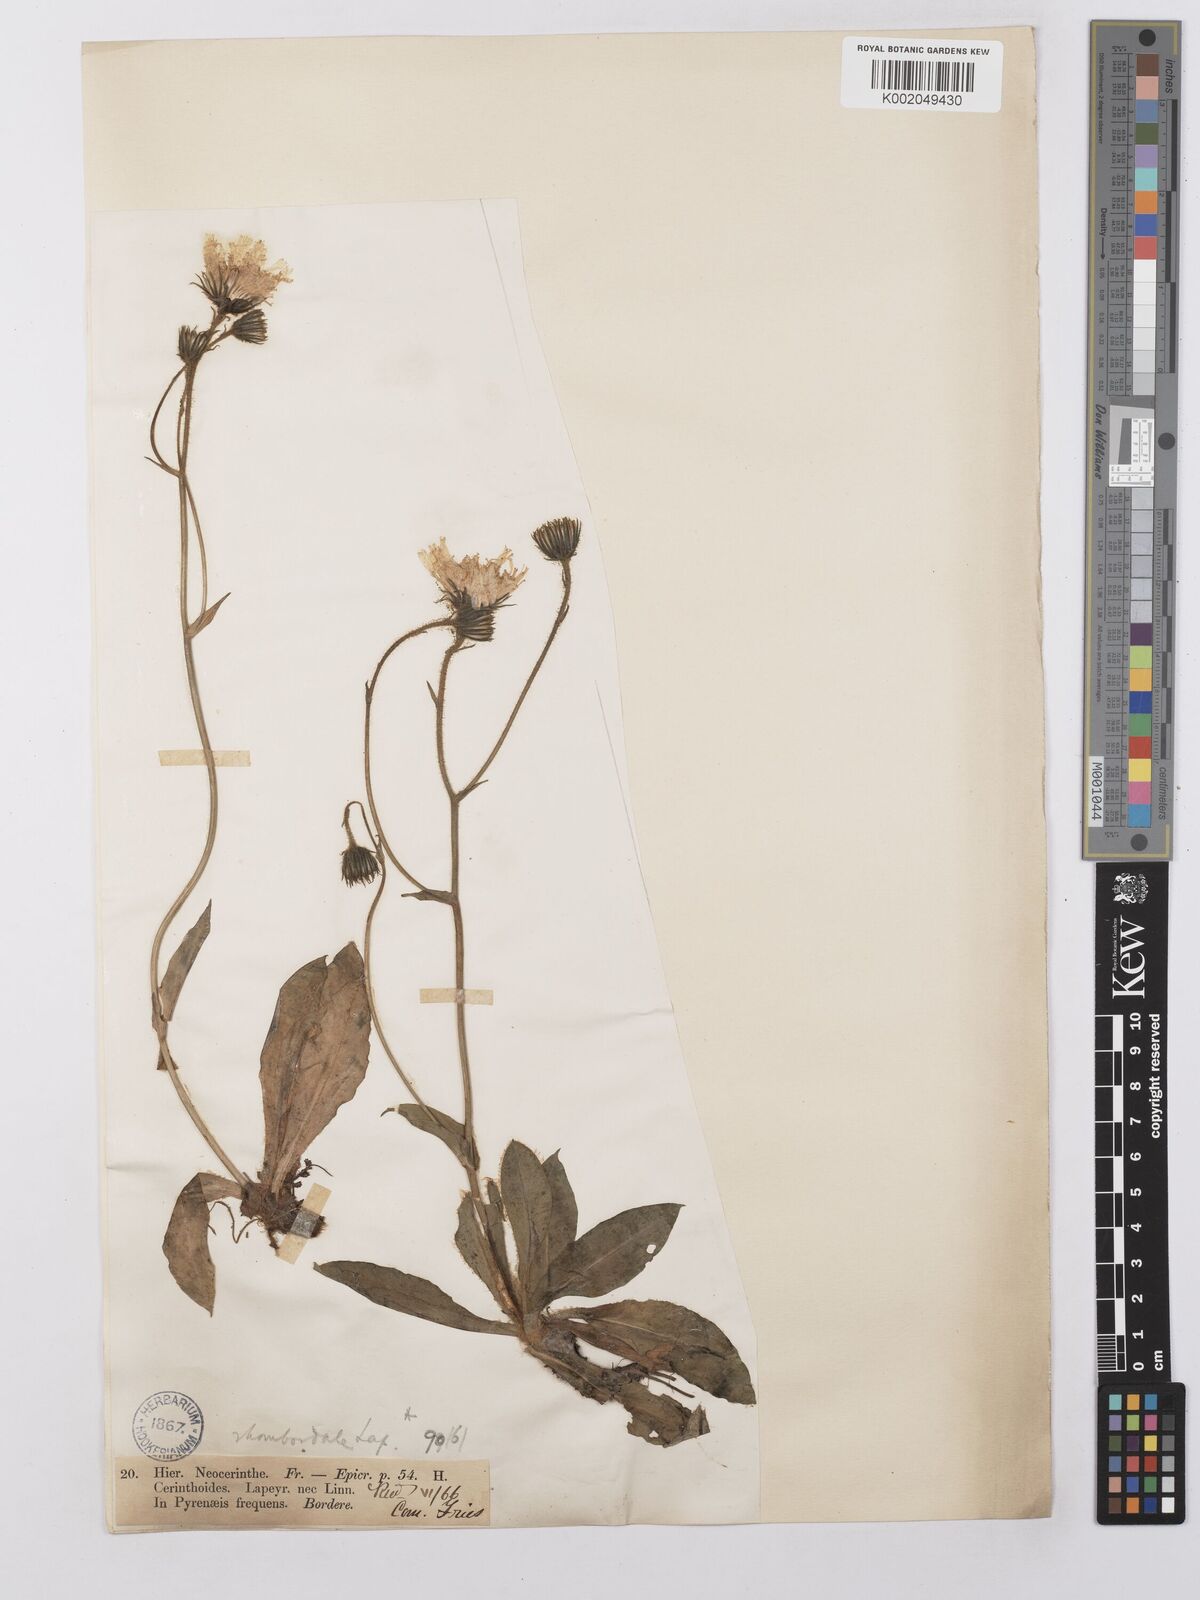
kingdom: Plantae
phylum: Tracheophyta
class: Magnoliopsida
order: Asterales
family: Asteraceae
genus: Hieracium
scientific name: Hieracium cerinthoides
